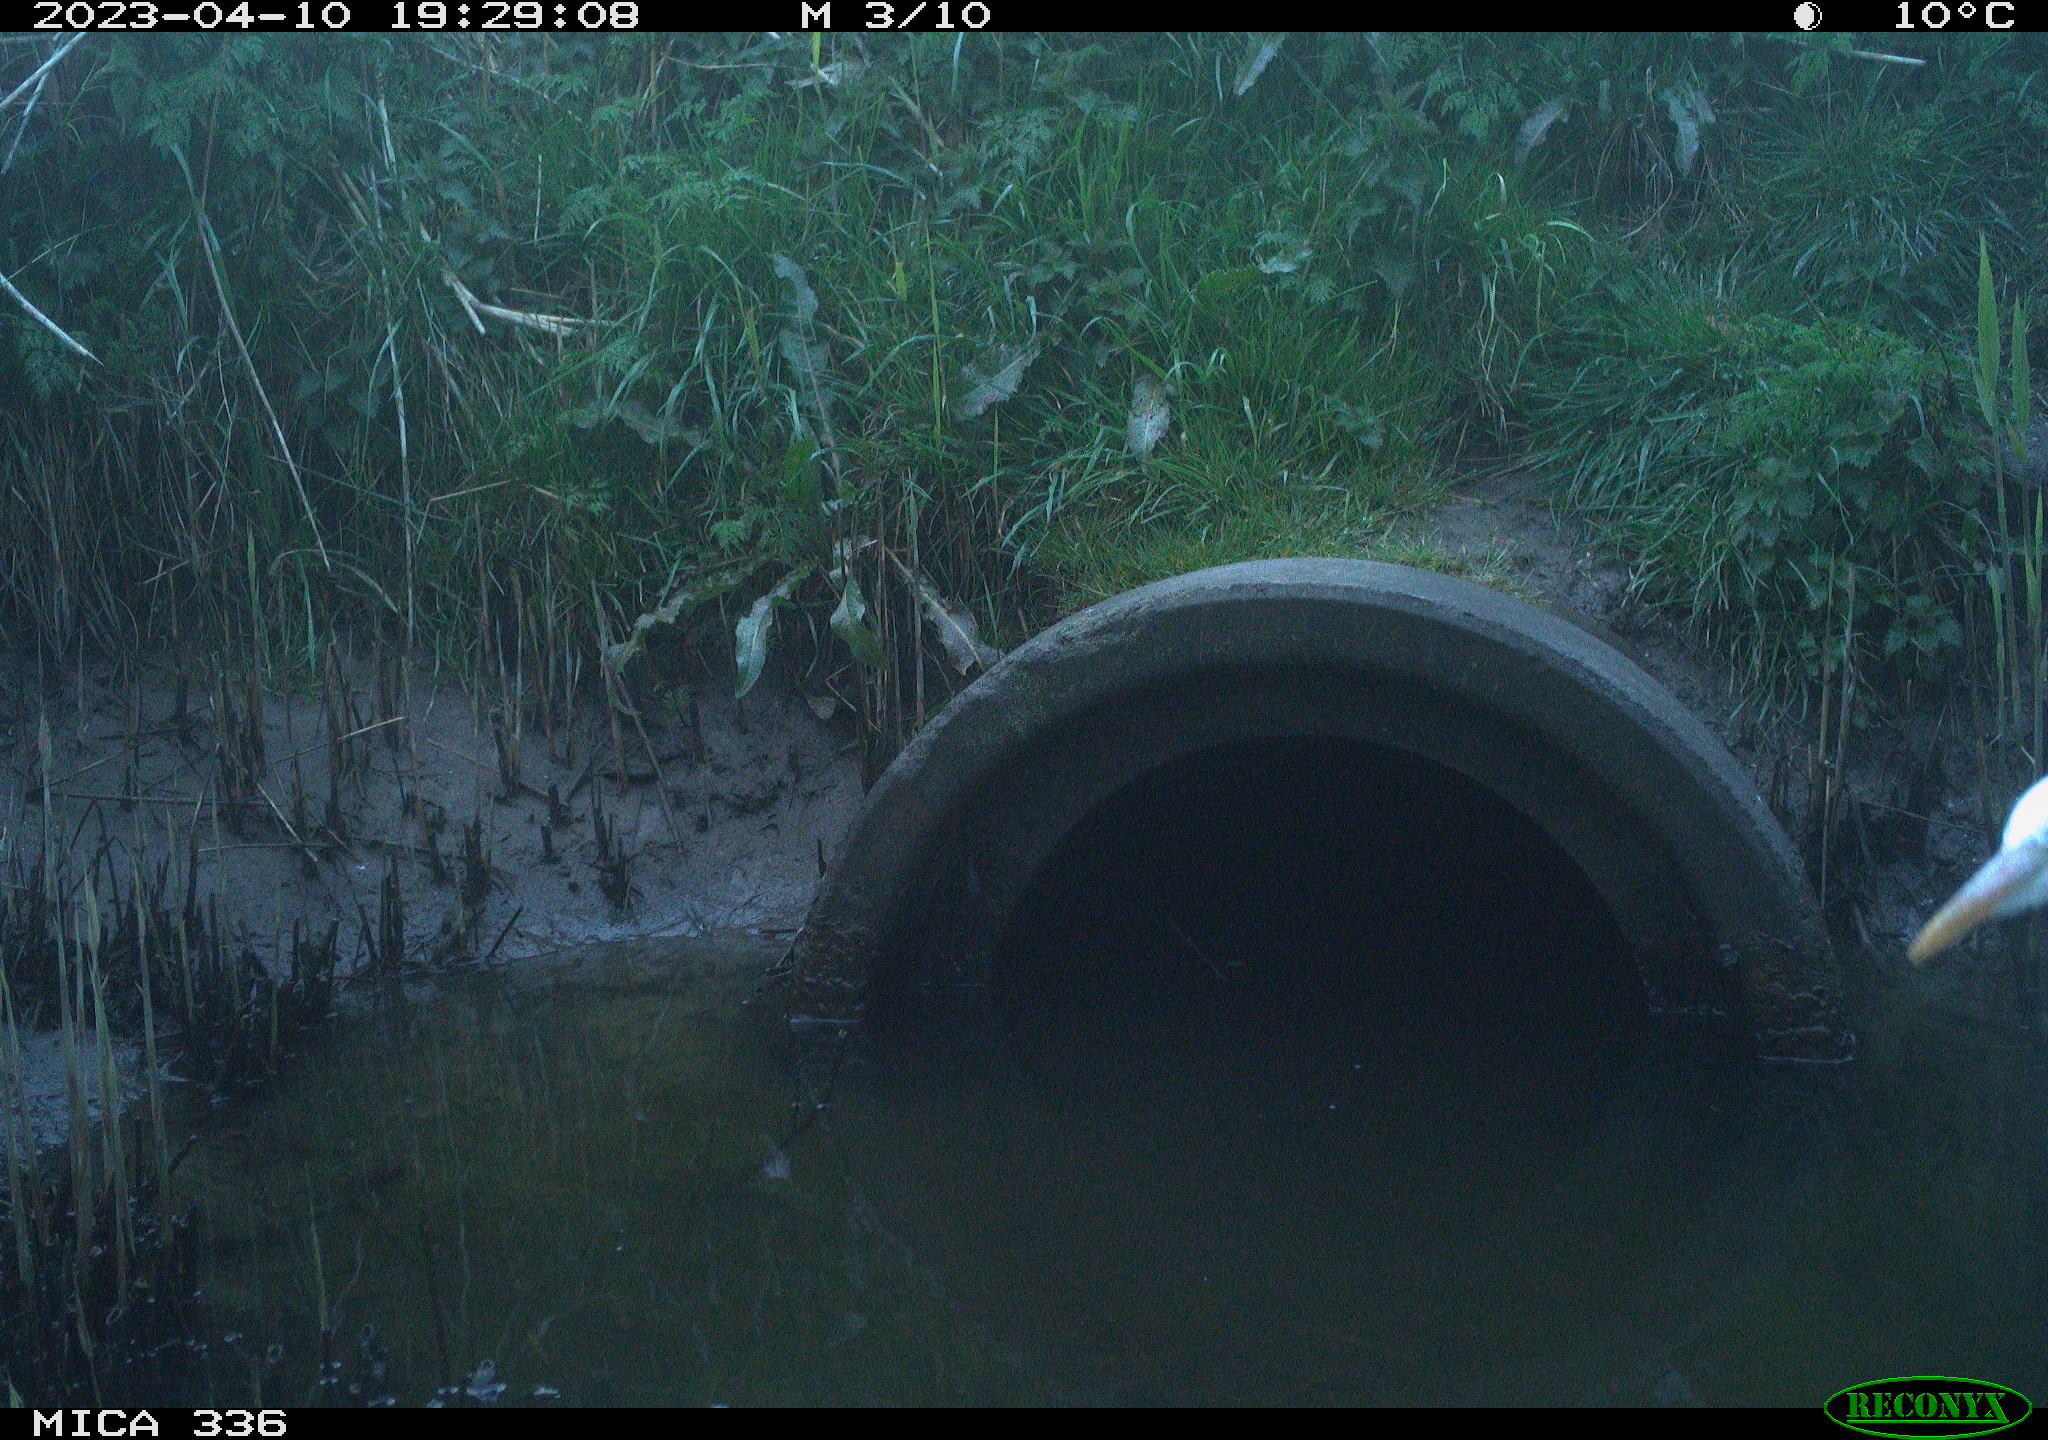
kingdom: Animalia
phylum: Chordata
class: Aves
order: Pelecaniformes
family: Ardeidae
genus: Ardea
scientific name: Ardea cinerea
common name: Grey heron
